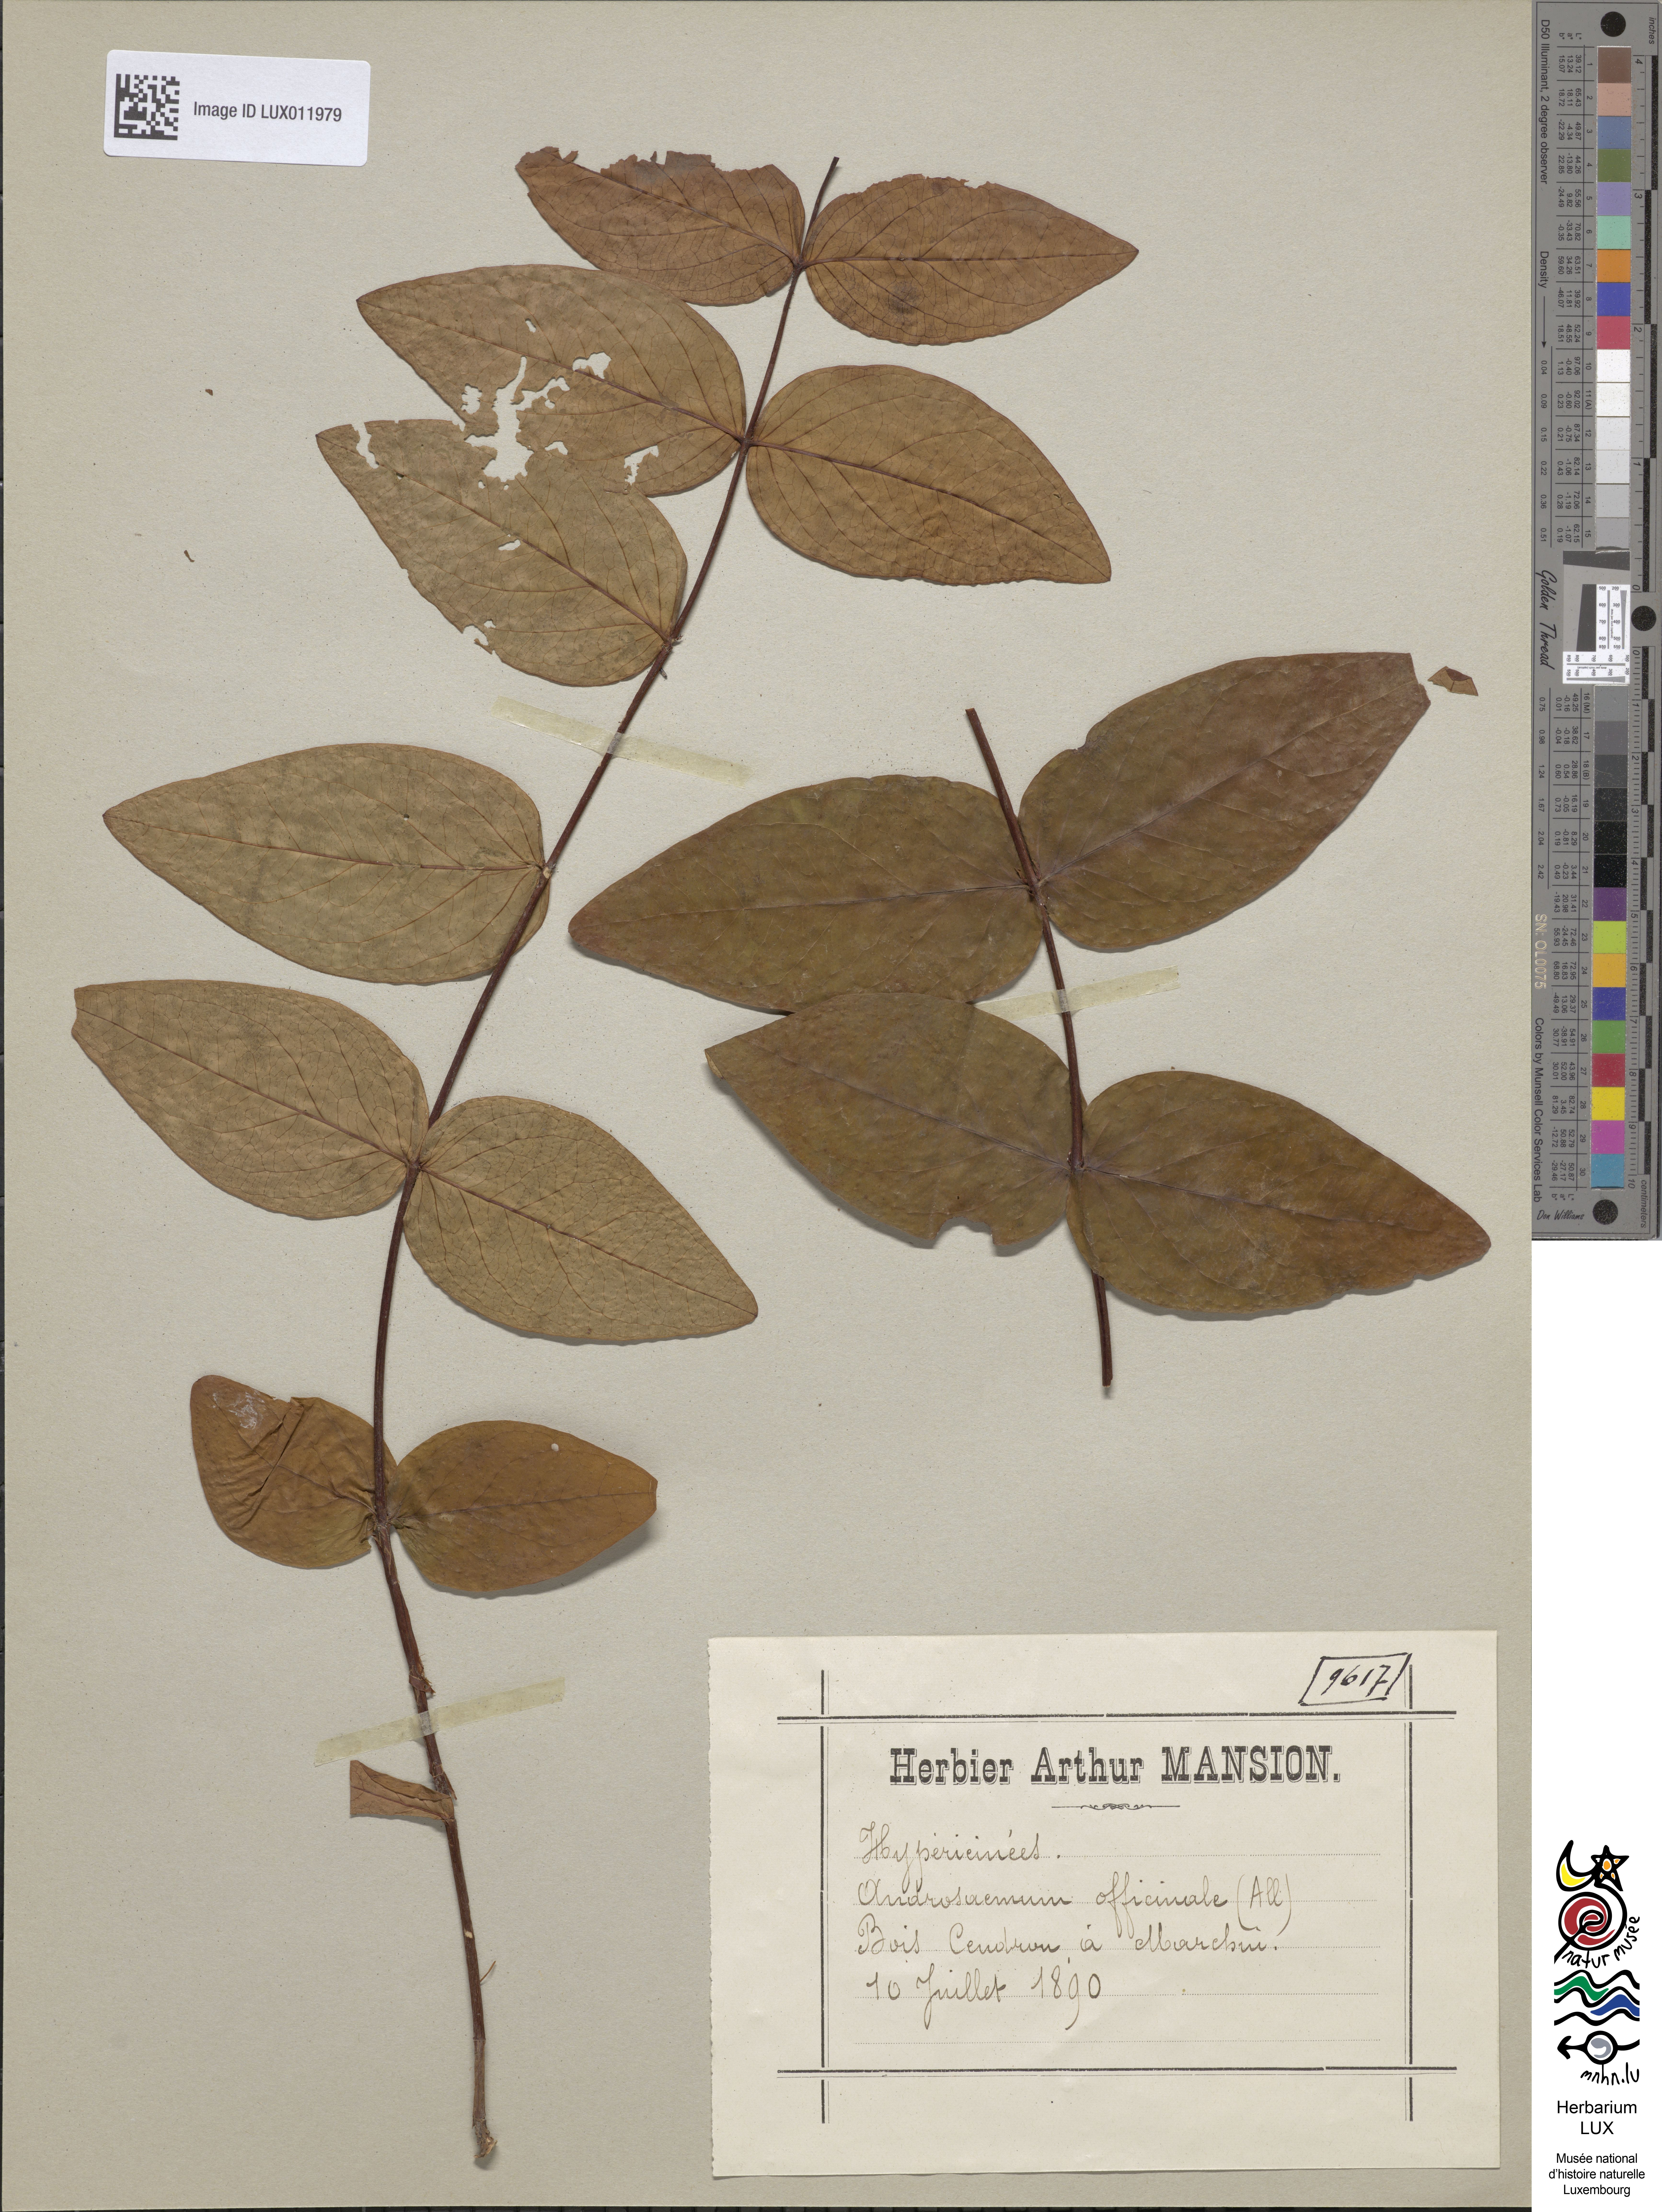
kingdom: Plantae
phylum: Tracheophyta
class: Magnoliopsida
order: Malpighiales
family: Hypericaceae
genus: Hypericum
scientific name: Hypericum androsaemum
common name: Sweet-amber
